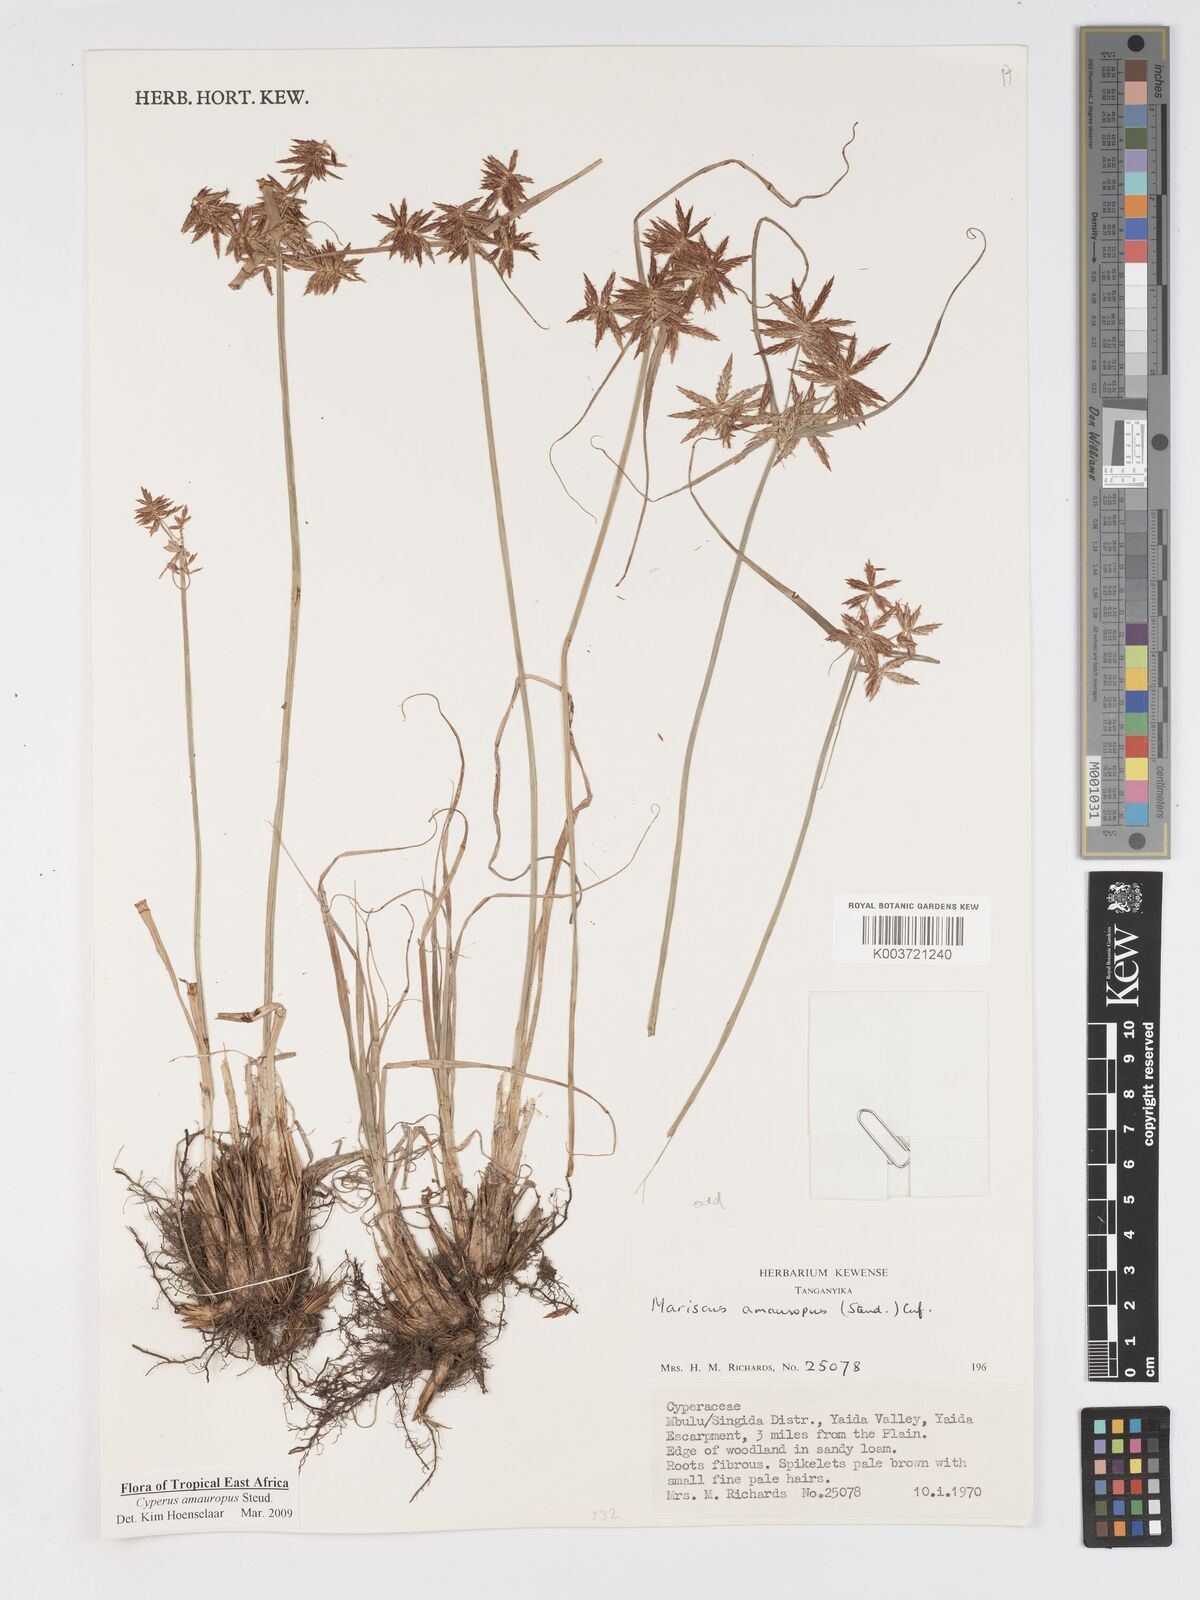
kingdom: Plantae
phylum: Tracheophyta
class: Liliopsida
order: Poales
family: Cyperaceae
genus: Cyperus
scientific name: Cyperus amauropus
